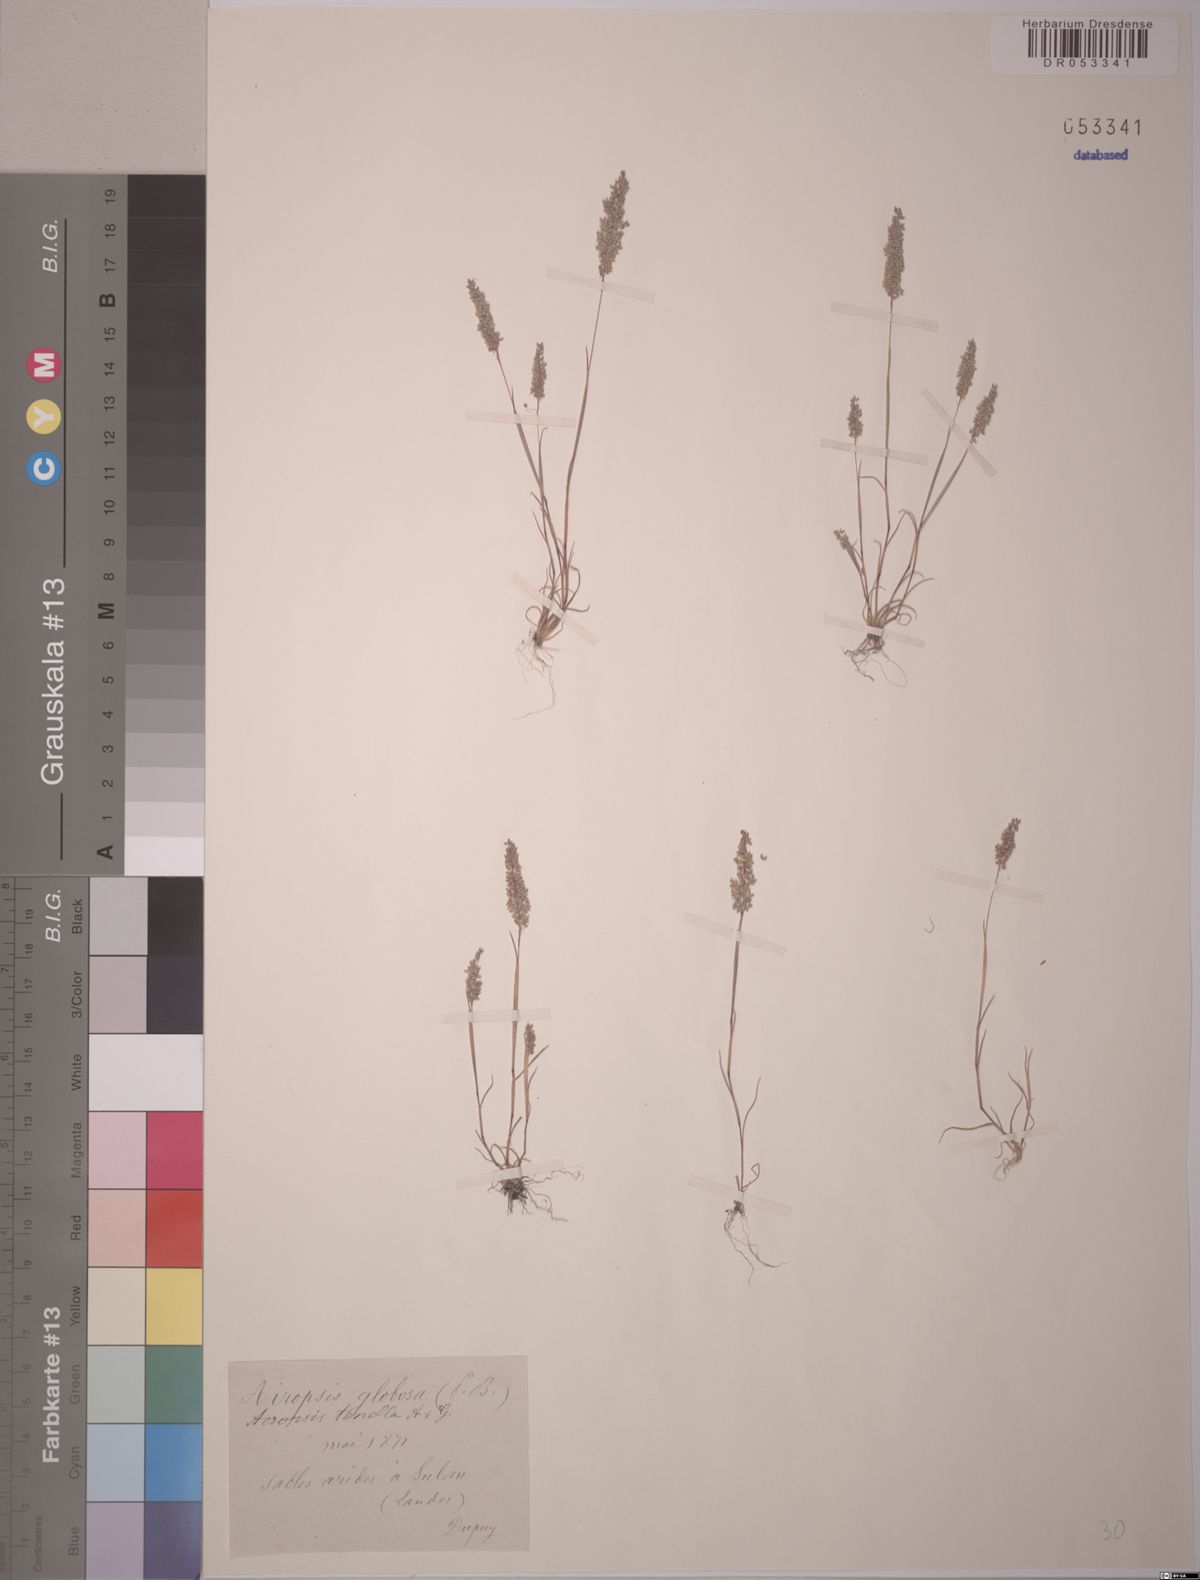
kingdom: Plantae
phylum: Tracheophyta
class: Liliopsida
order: Poales
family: Poaceae
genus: Airopsis
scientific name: Airopsis tenella
